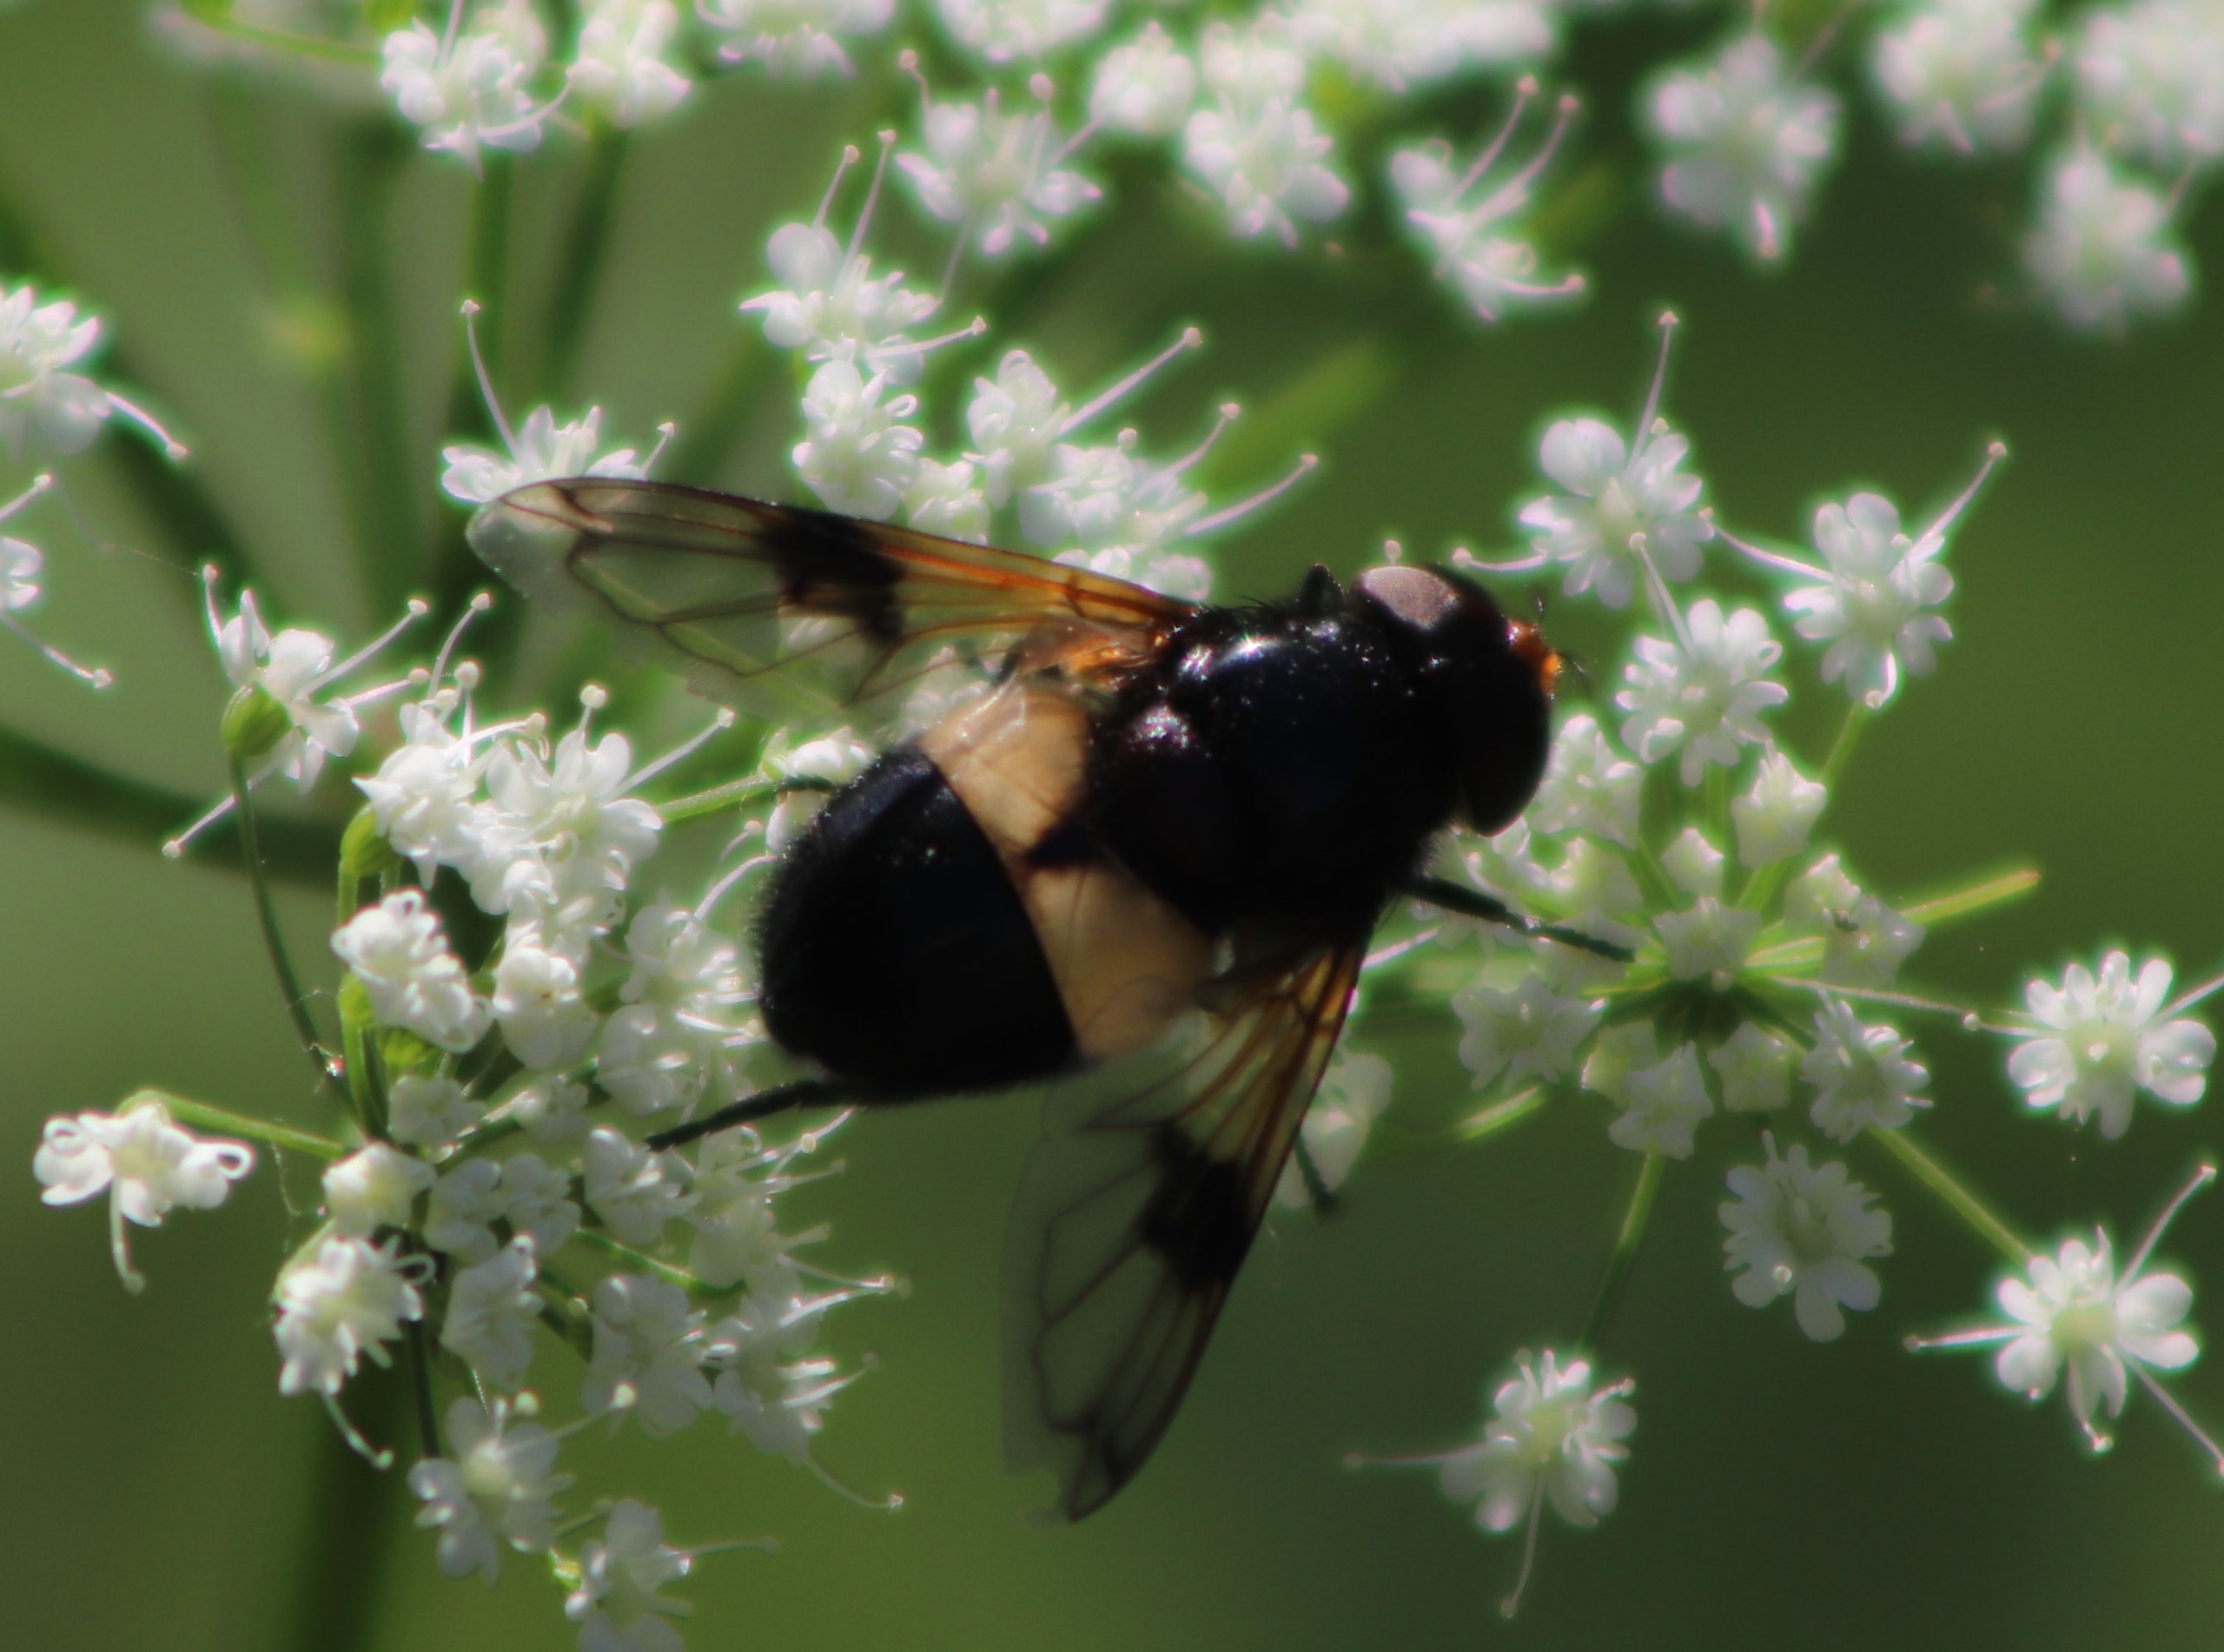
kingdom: Animalia
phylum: Arthropoda
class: Insecta
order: Diptera
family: Syrphidae
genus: Volucella
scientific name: Volucella pellucens
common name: Hvidbåndet humlesvirreflue
